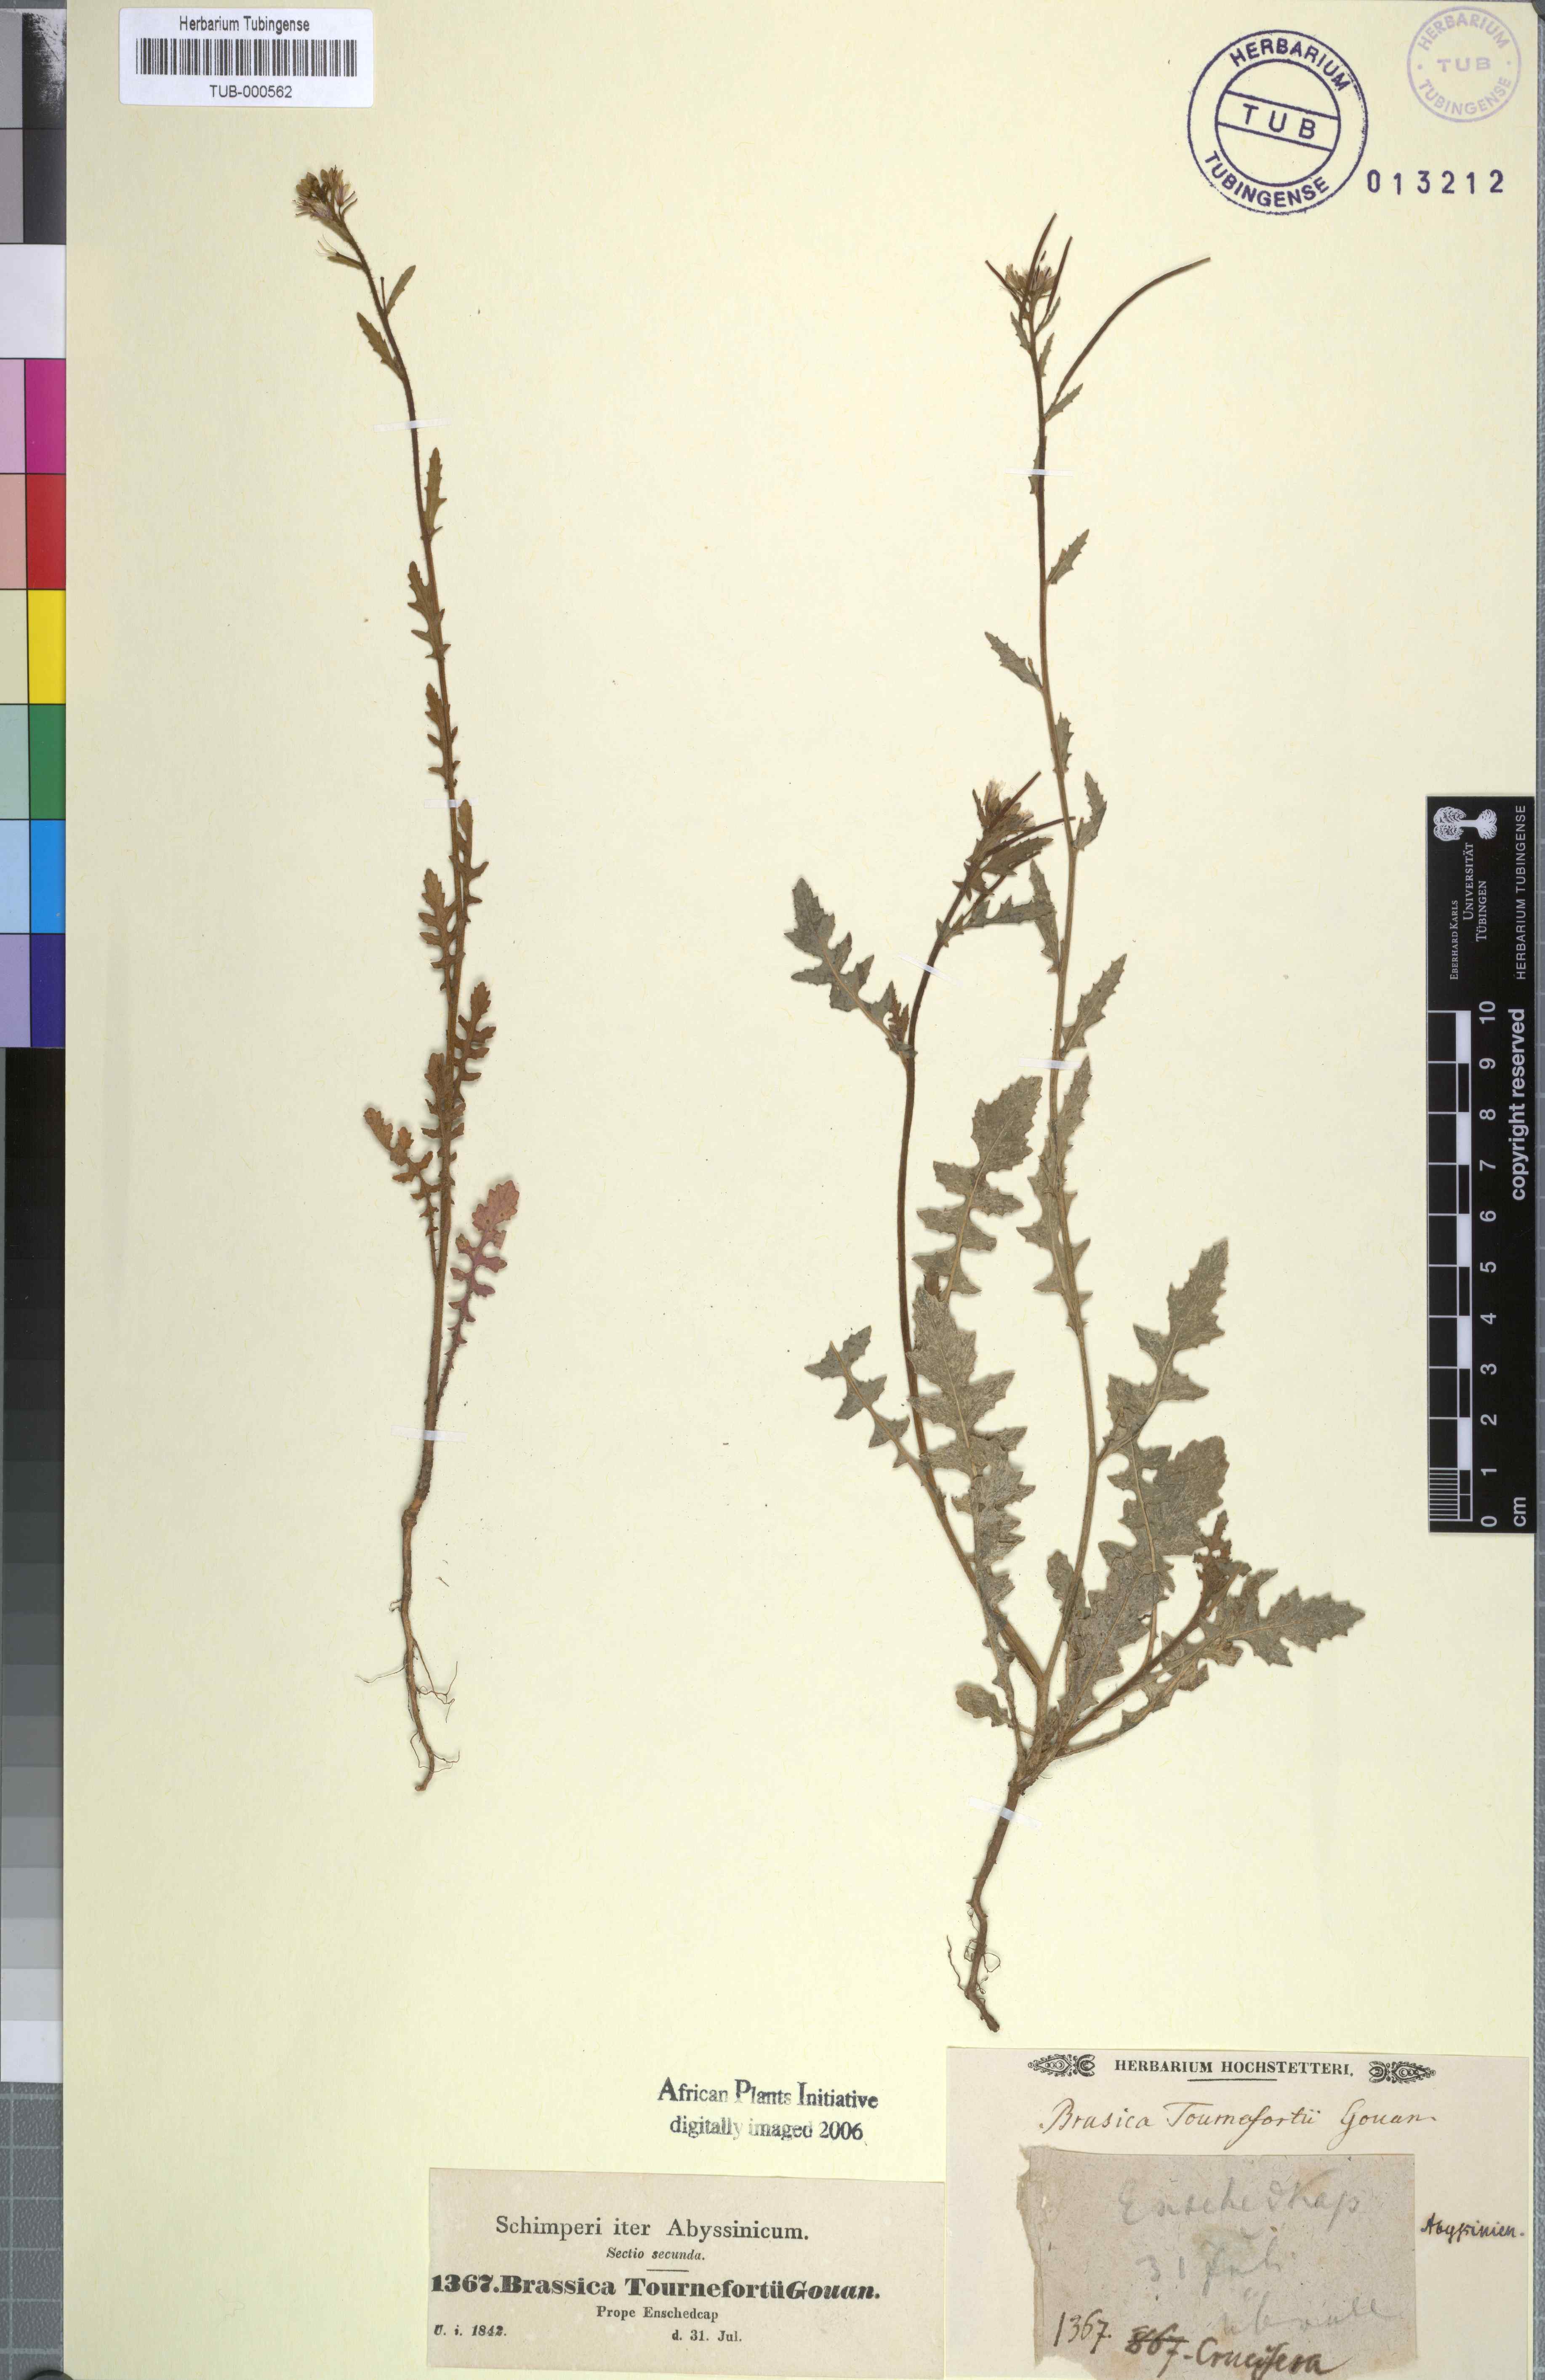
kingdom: Plantae
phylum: Tracheophyta
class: Magnoliopsida
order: Brassicales
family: Brassicaceae
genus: Brassica
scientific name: Brassica tournefortii
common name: Pale cabbage
